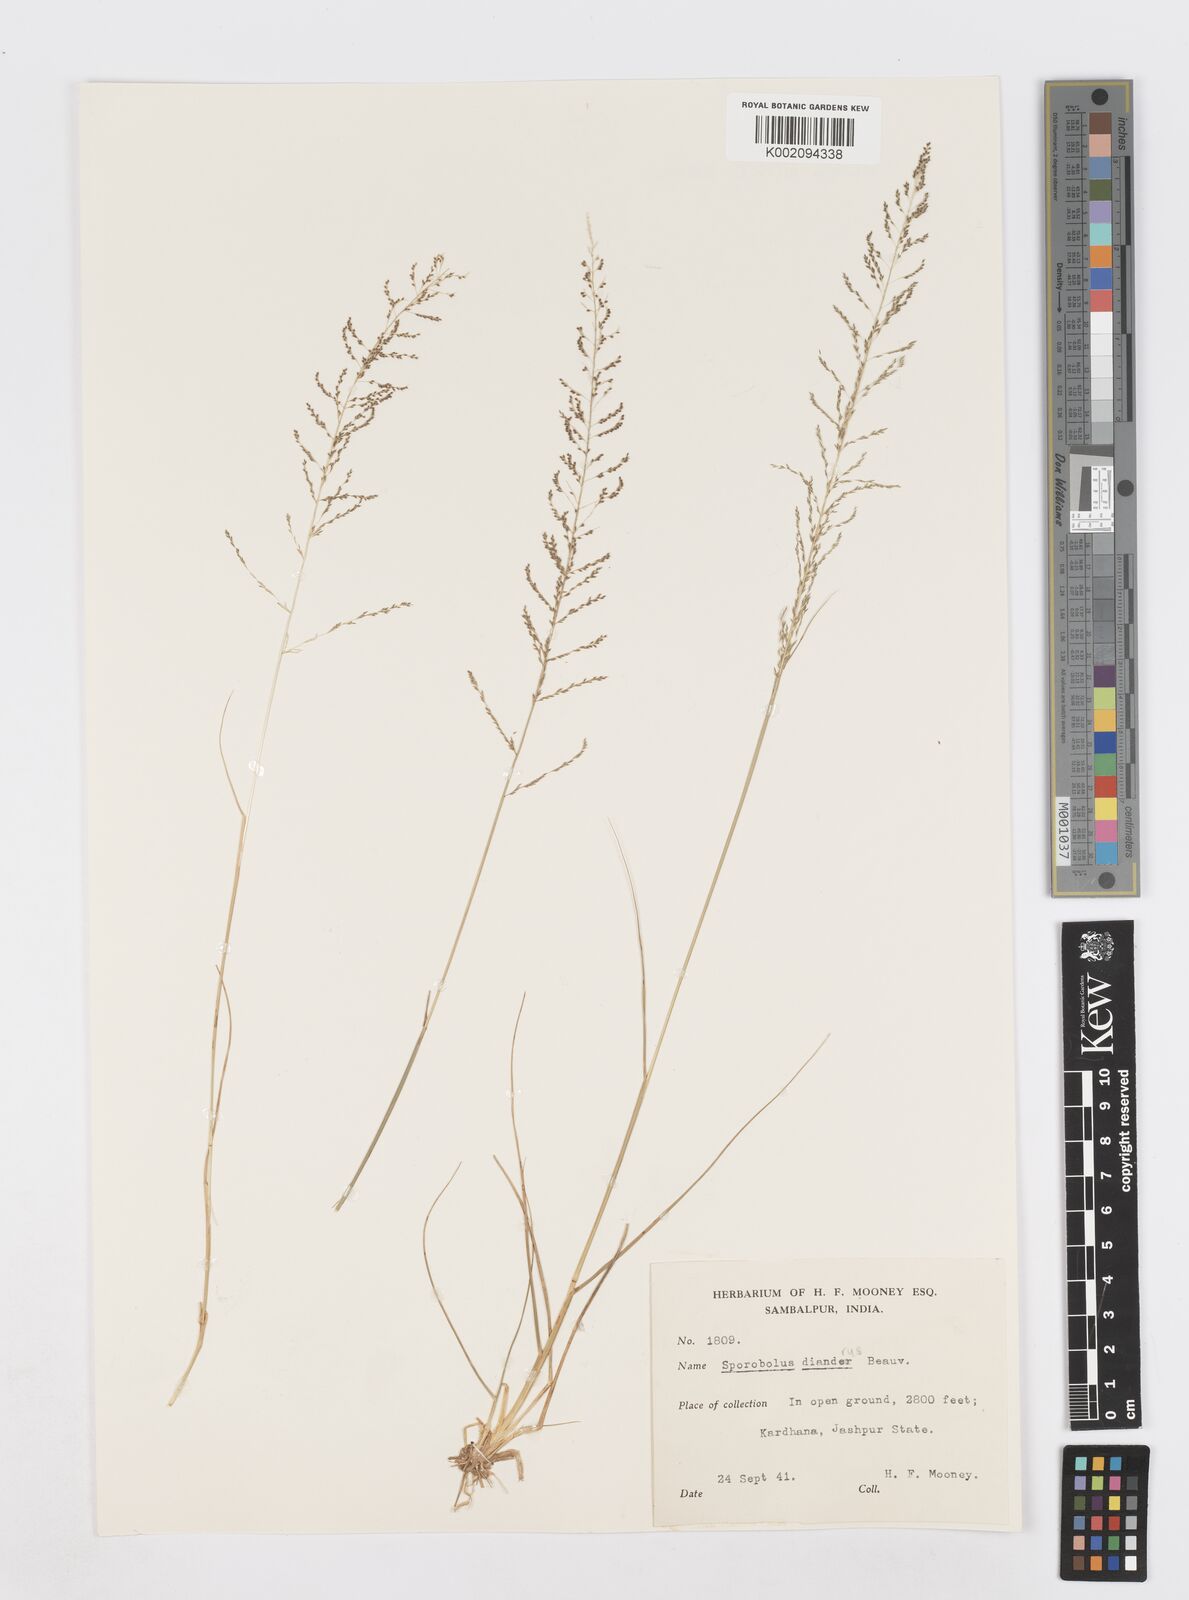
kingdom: Plantae
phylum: Tracheophyta
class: Liliopsida
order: Poales
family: Poaceae
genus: Sporobolus
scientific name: Sporobolus diandrus
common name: Tussock dropseed
